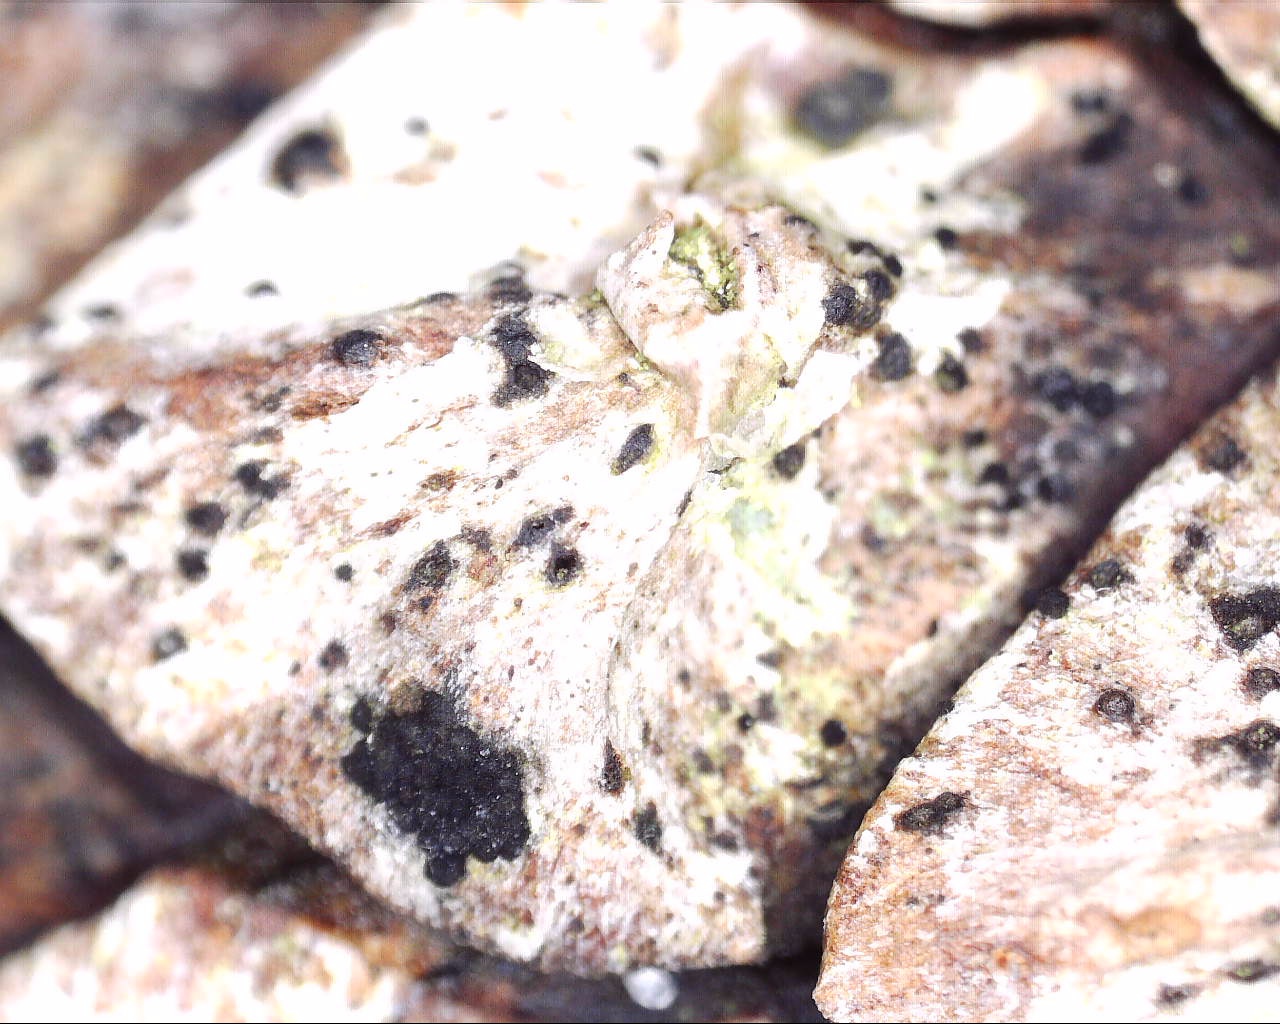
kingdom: Fungi
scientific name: Fungi
